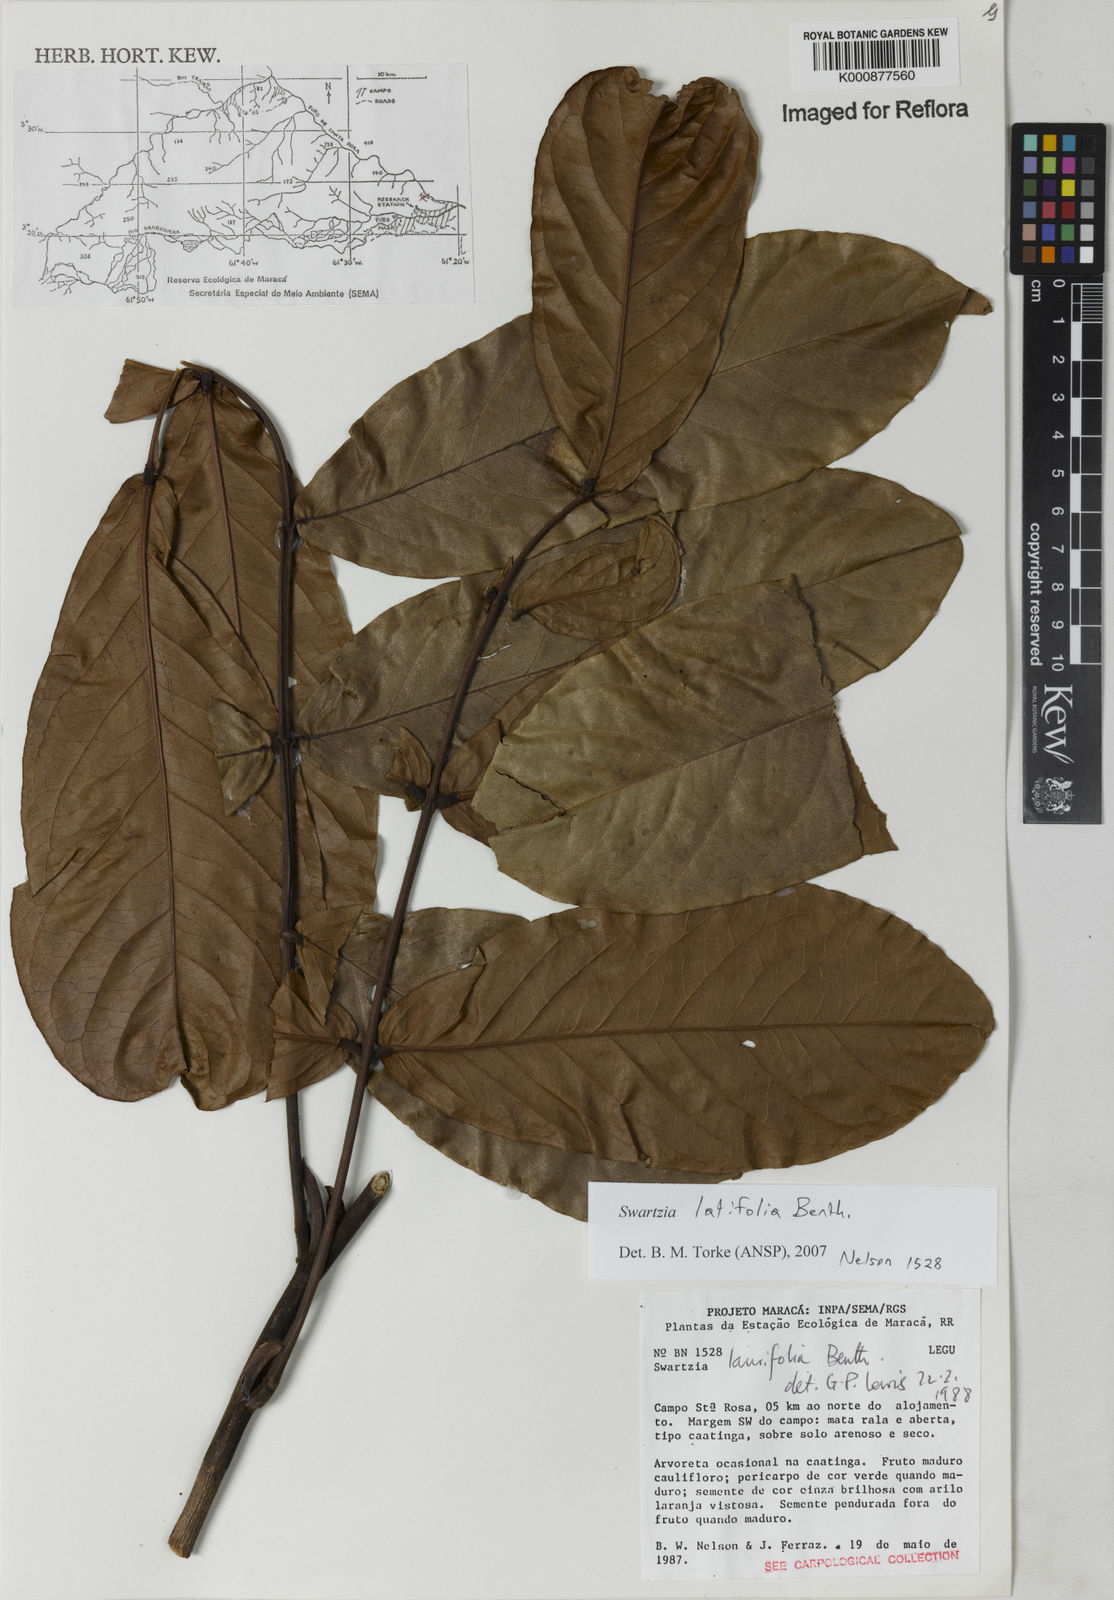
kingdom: Plantae
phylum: Tracheophyta
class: Magnoliopsida
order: Fabales
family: Fabaceae
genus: Swartzia
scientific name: Swartzia latifolia
